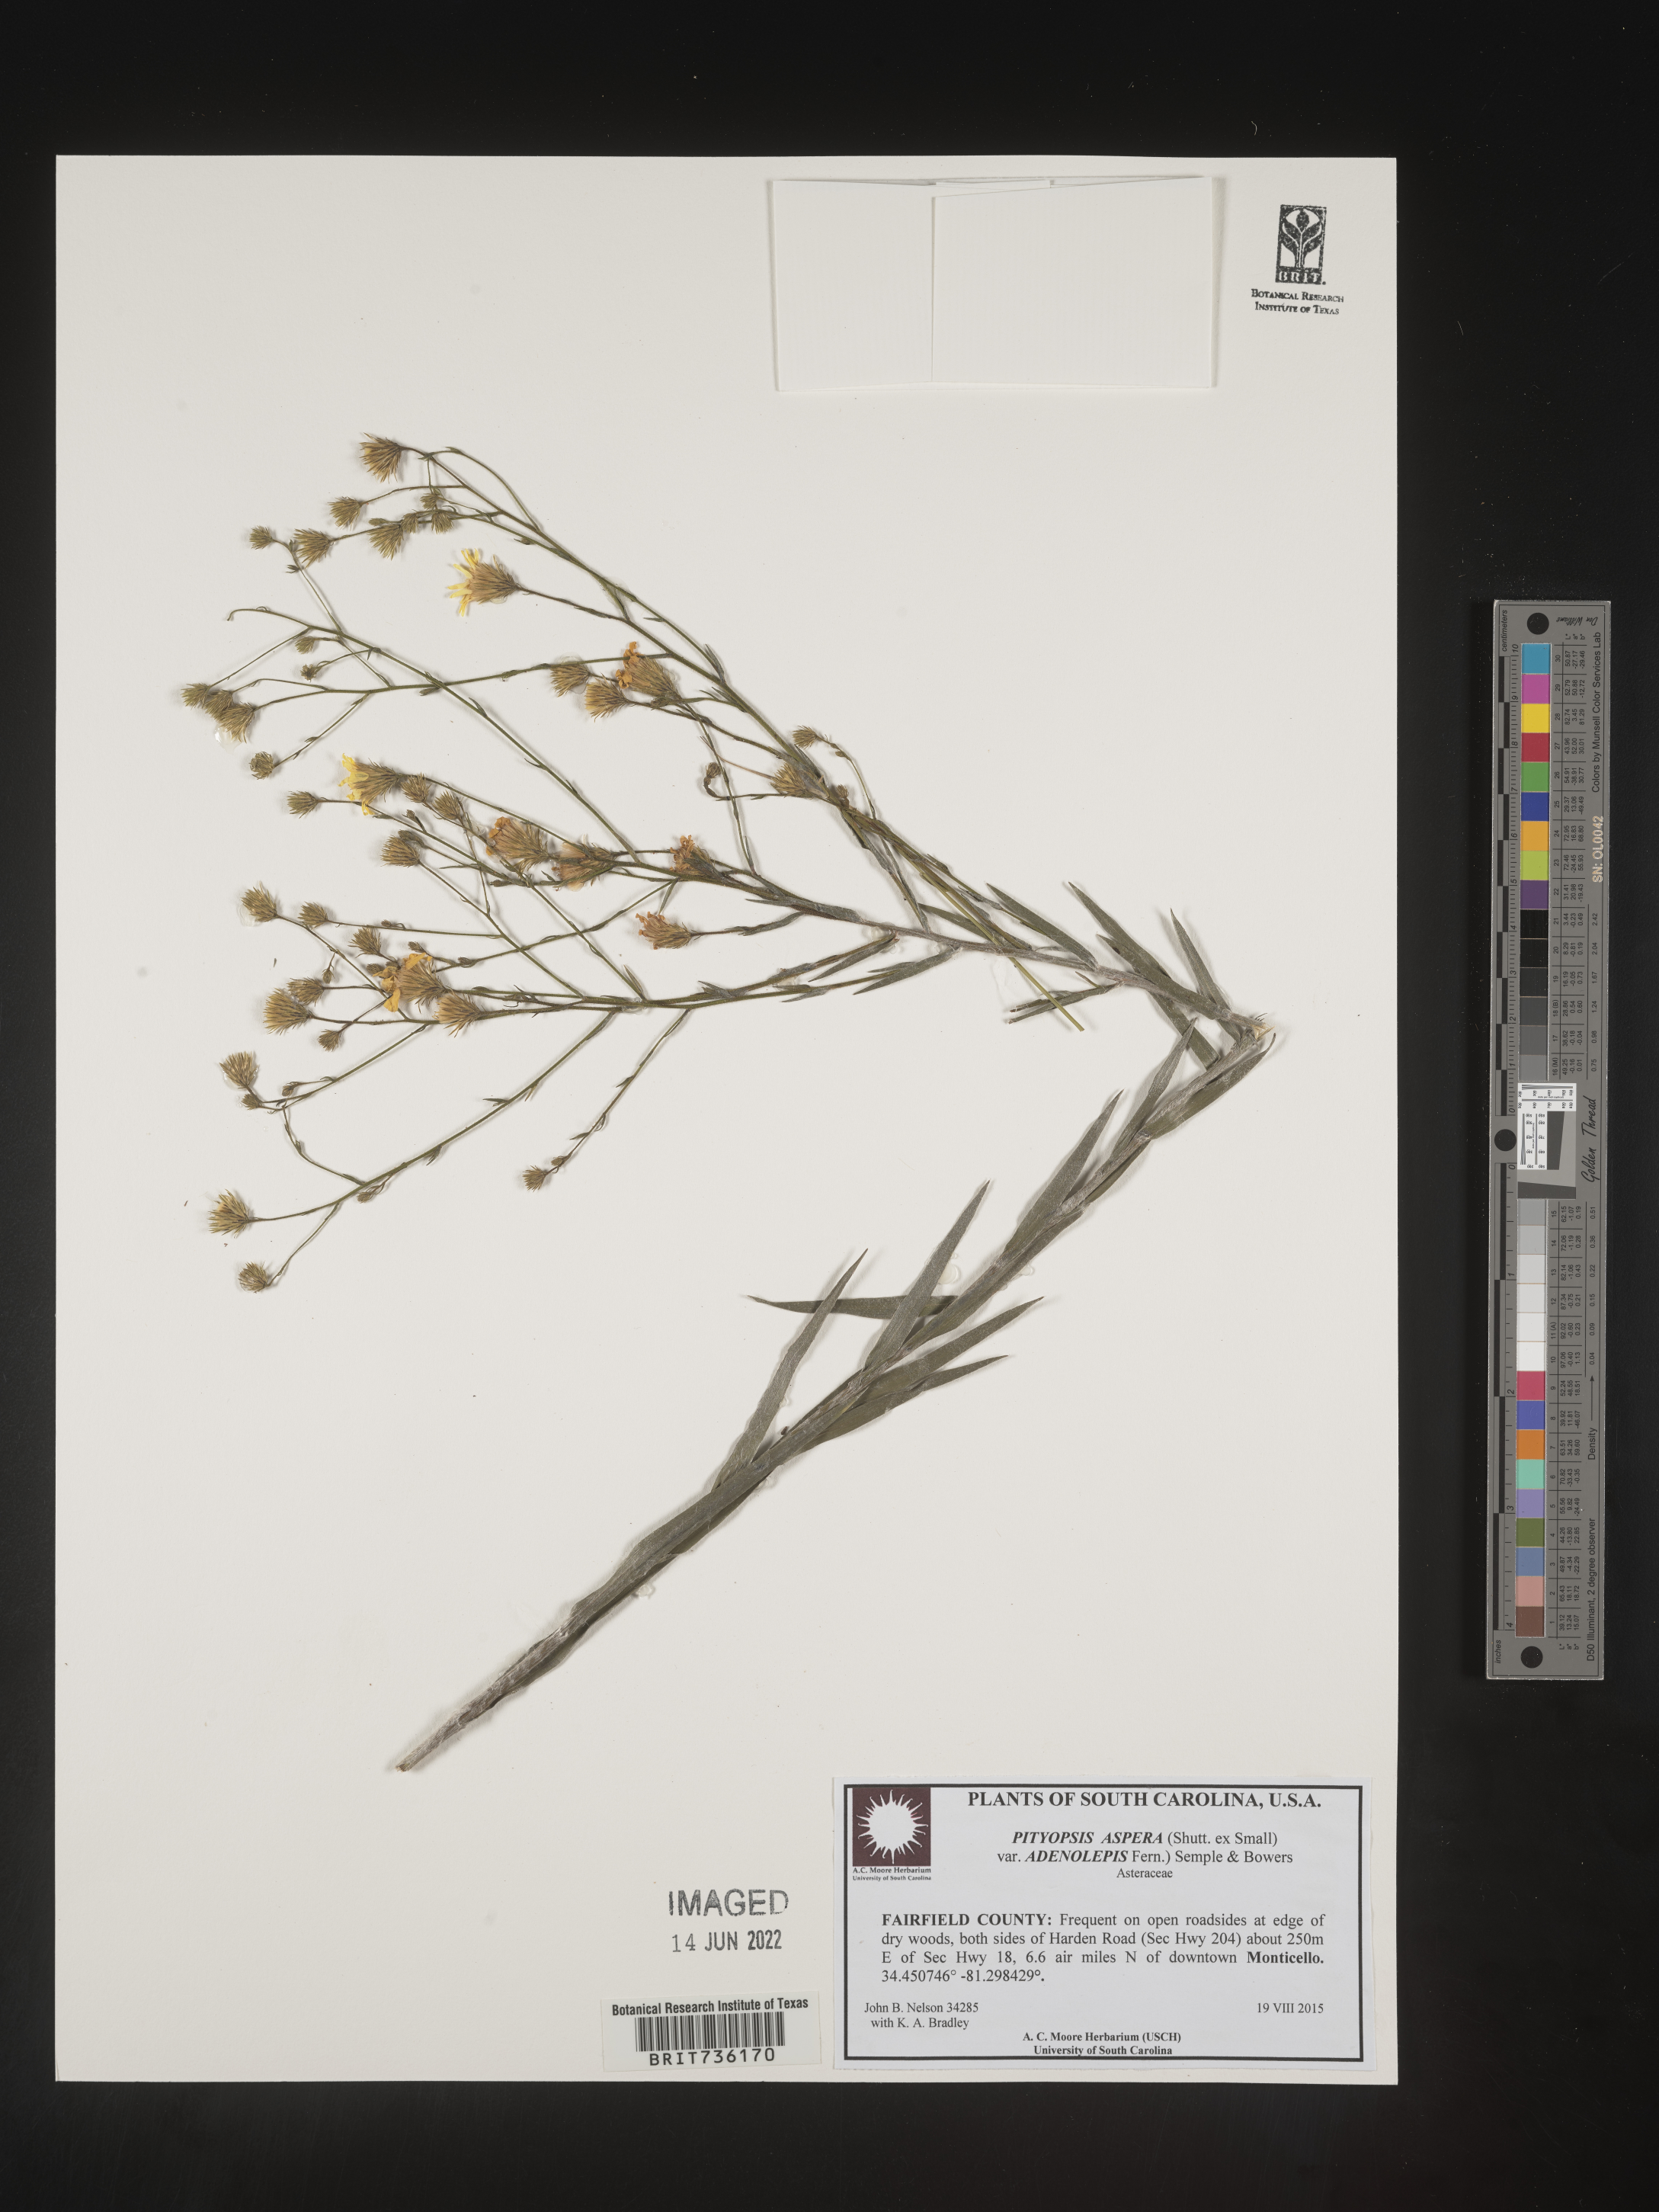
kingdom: Plantae
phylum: Tracheophyta
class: Magnoliopsida
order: Asterales
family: Asteraceae
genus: Pityopsis
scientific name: Pityopsis aspera
